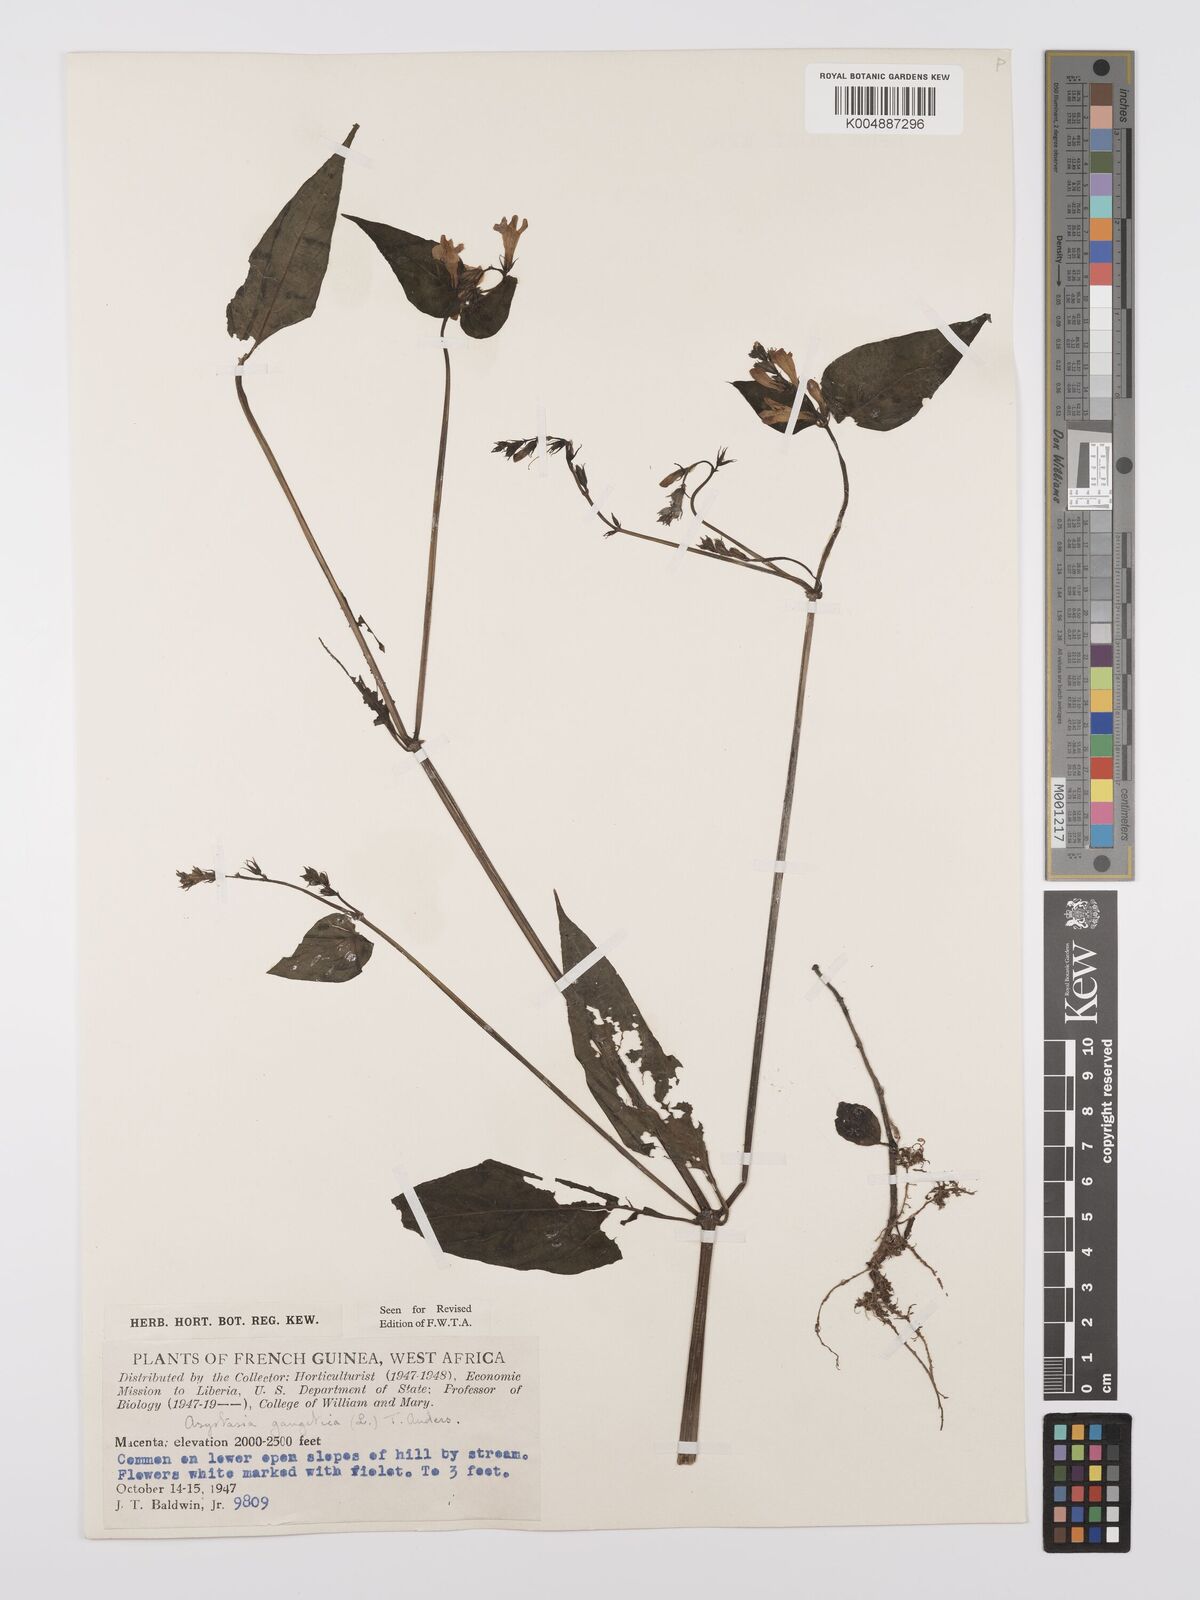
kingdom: Plantae
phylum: Tracheophyta
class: Magnoliopsida
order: Lamiales
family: Acanthaceae
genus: Asystasia
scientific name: Asystasia gangetica
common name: Chinese violet
